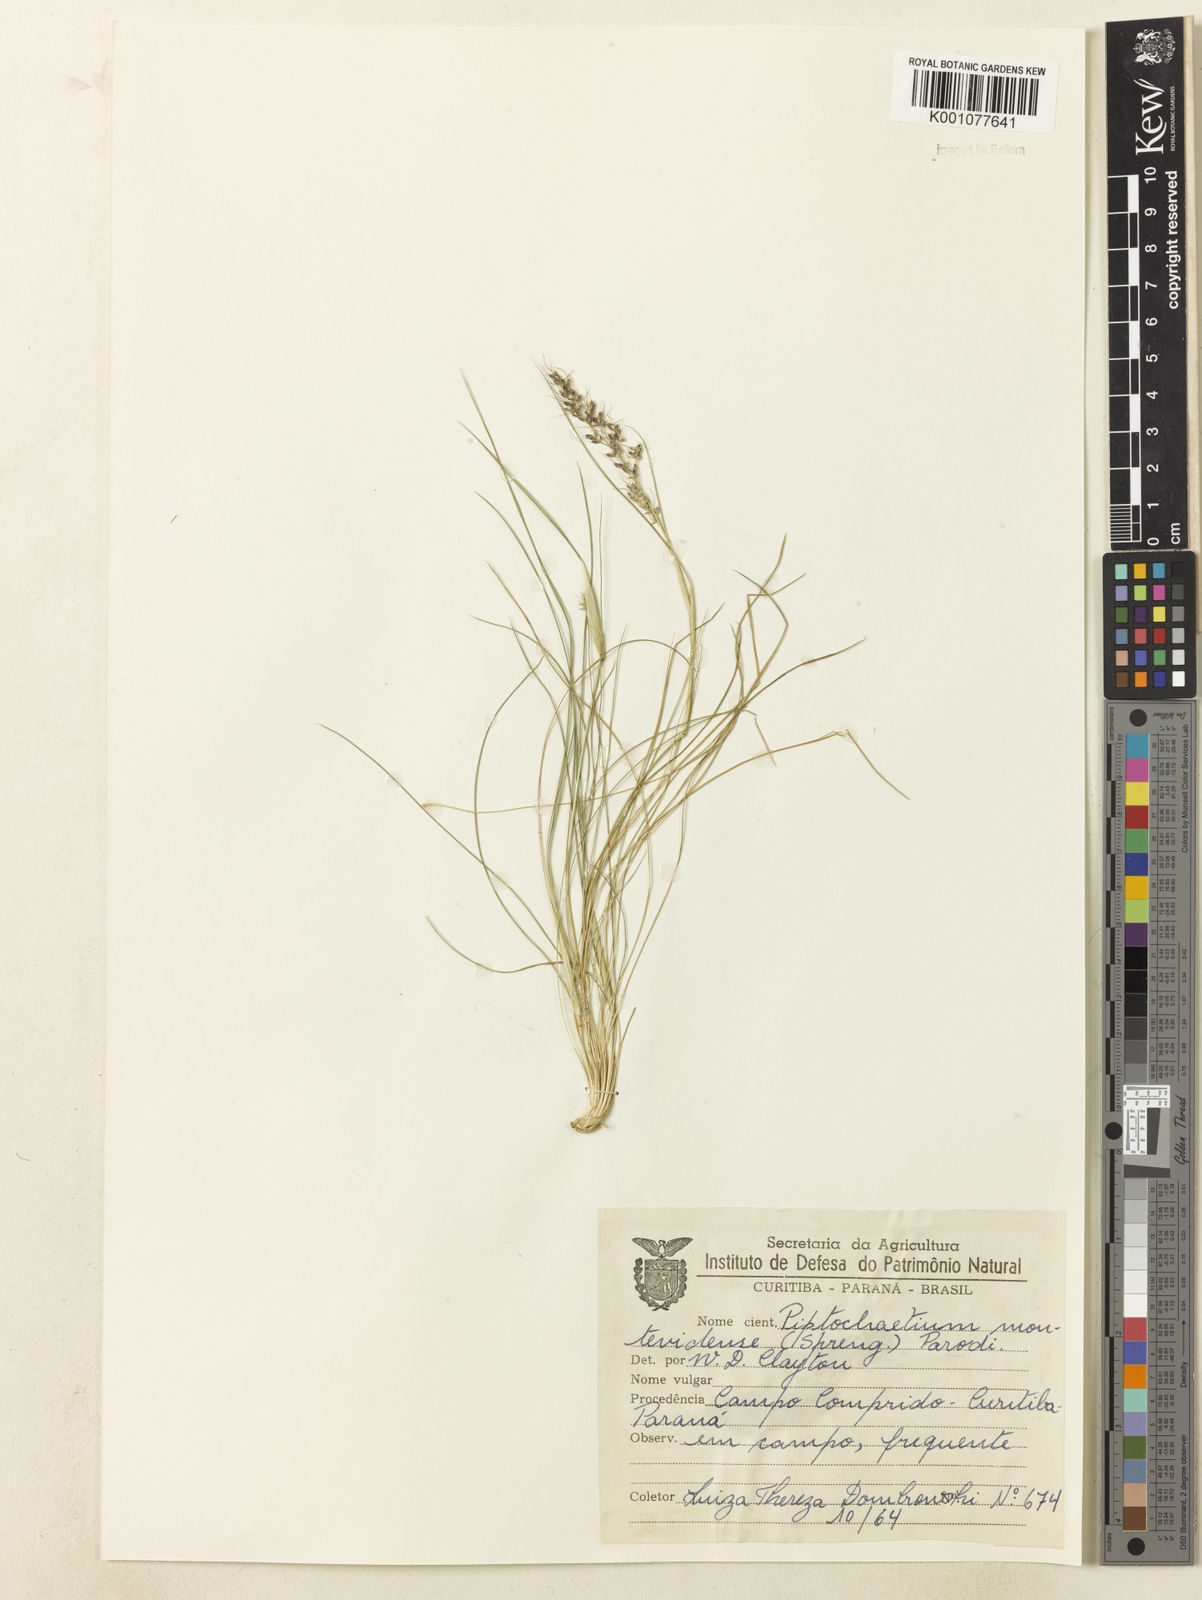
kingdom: Plantae
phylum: Tracheophyta
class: Liliopsida
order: Poales
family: Poaceae
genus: Piptochaetium
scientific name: Piptochaetium montevidense
